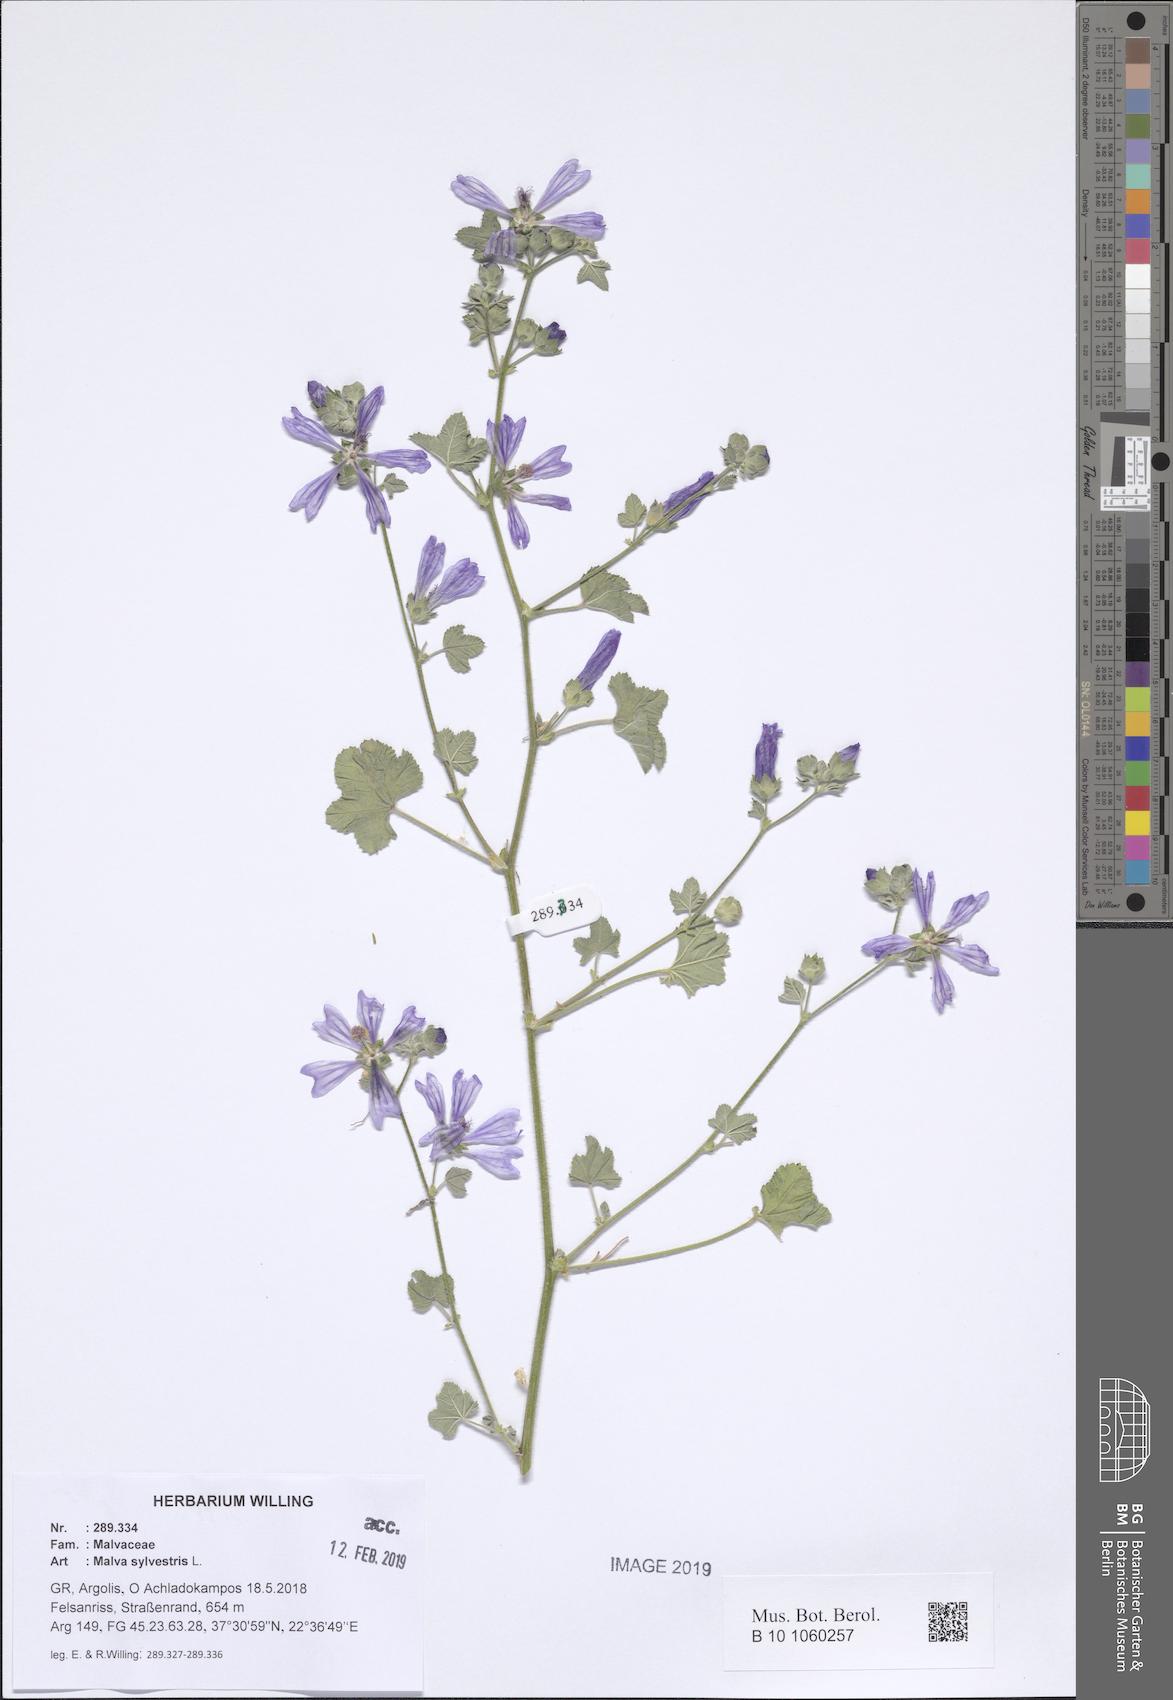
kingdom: Plantae
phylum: Tracheophyta
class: Magnoliopsida
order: Malvales
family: Malvaceae
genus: Malva
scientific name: Malva sylvestris
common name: Common mallow
